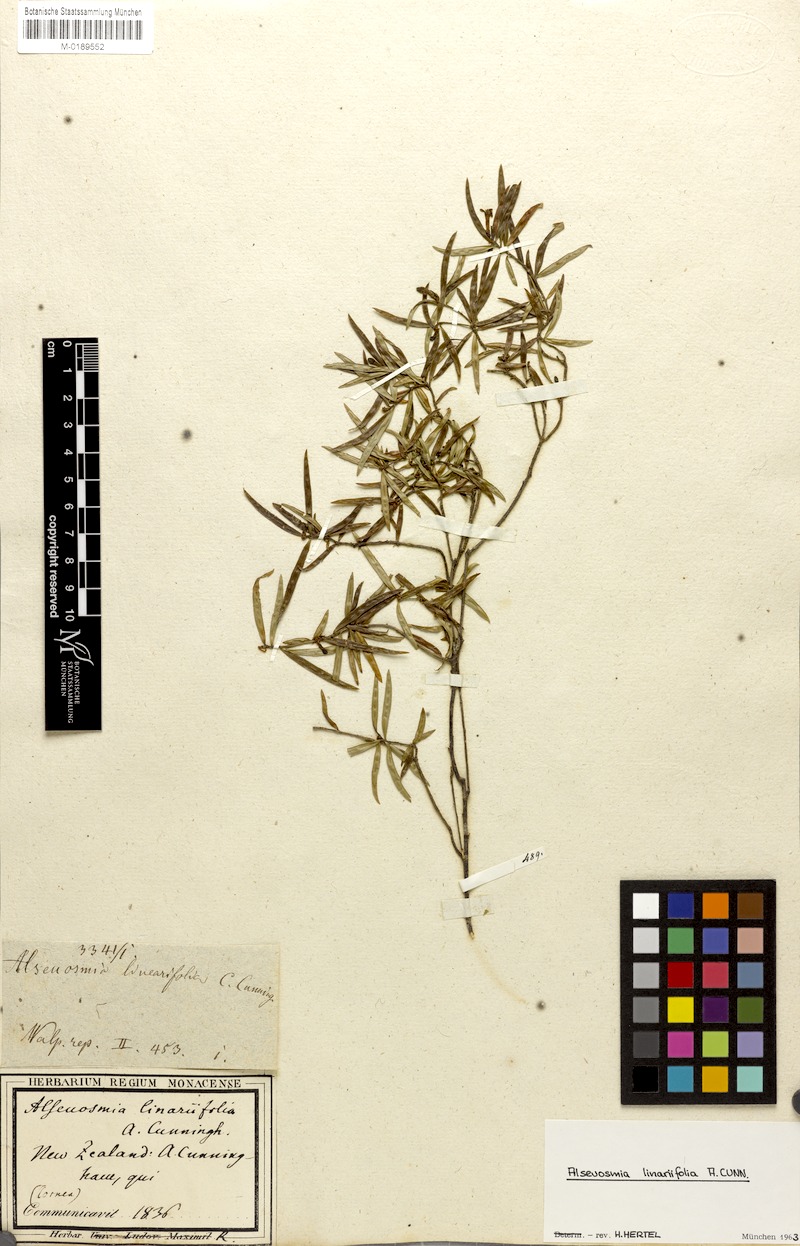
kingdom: Plantae
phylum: Tracheophyta
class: Magnoliopsida
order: Asterales
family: Alseuosmiaceae
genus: Alseuosmia
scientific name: Alseuosmia banksii
